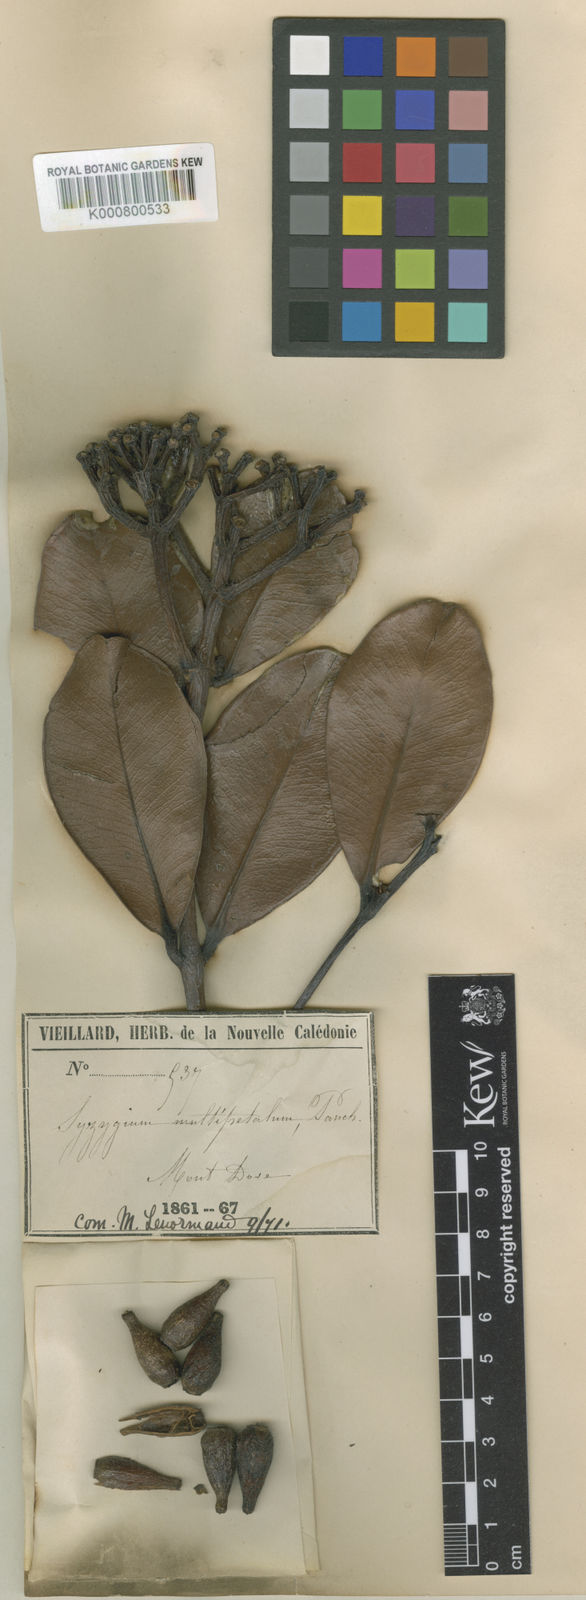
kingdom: Plantae
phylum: Tracheophyta
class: Magnoliopsida
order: Myrtales
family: Myrtaceae
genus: Syzygium
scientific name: Syzygium multipetalum
